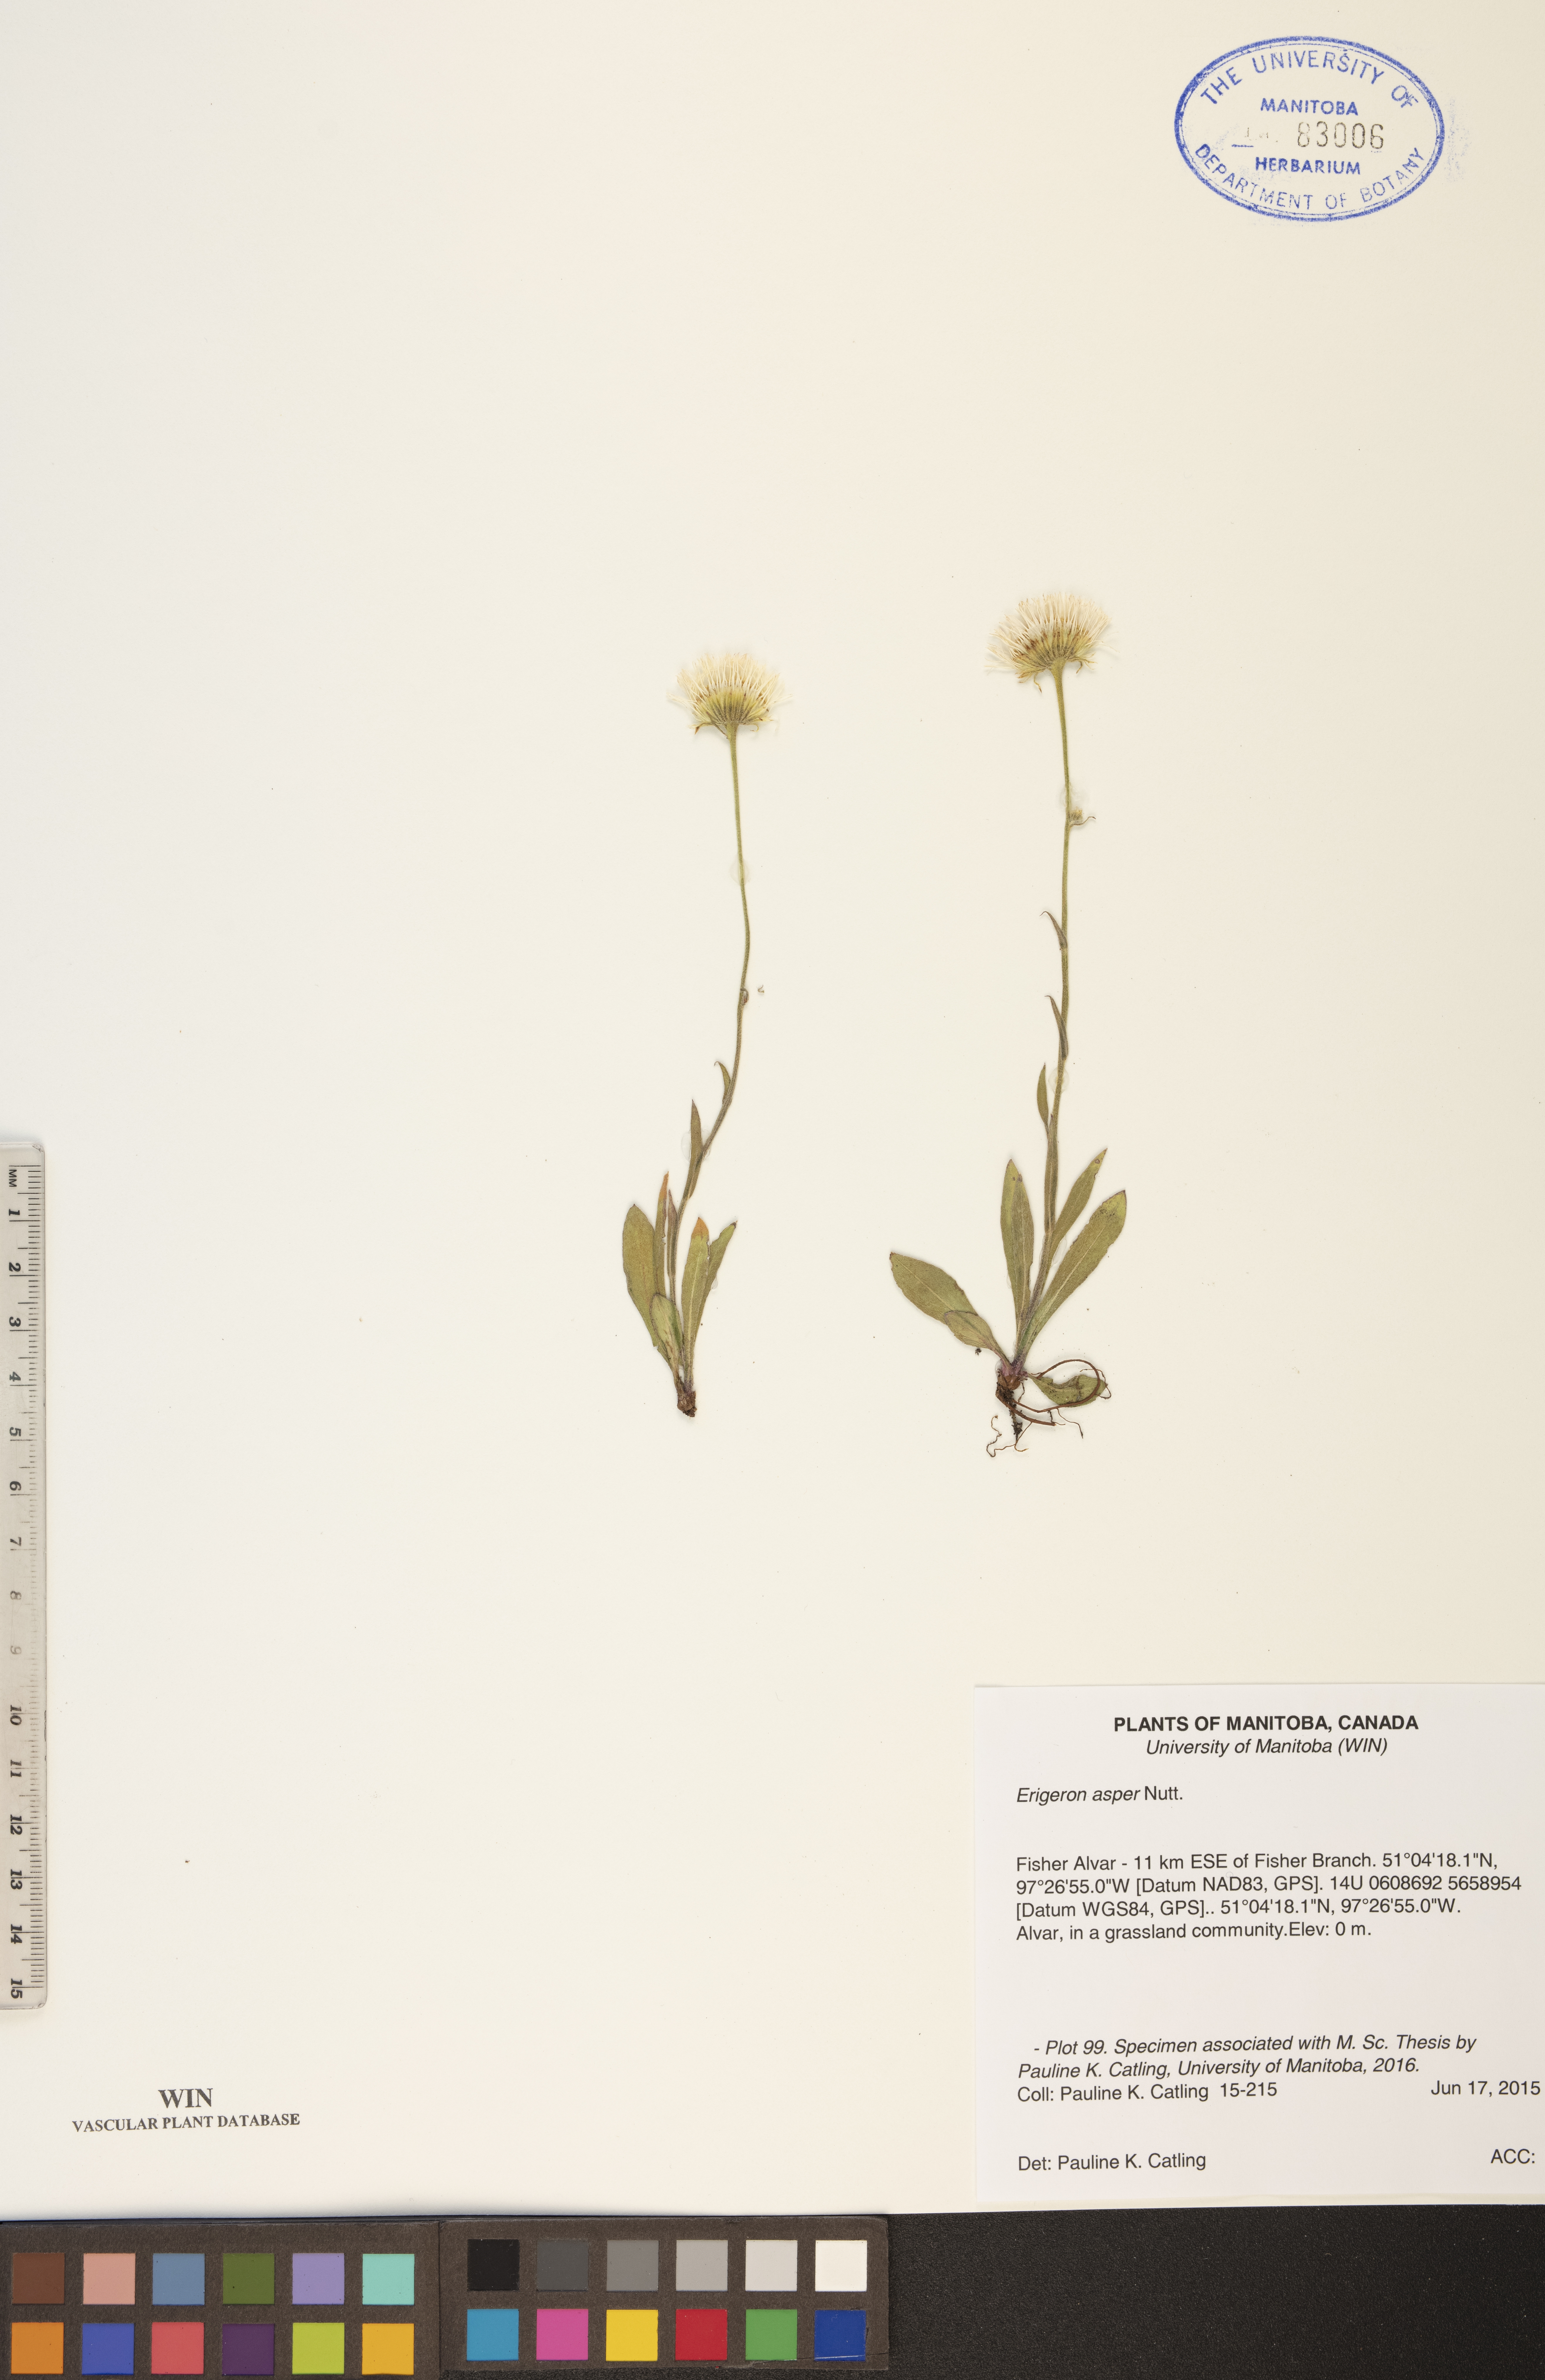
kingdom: Plantae
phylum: Tracheophyta
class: Magnoliopsida
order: Asterales
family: Asteraceae
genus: Erigeron
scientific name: Erigeron glabellus
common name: Smooth fleabane
